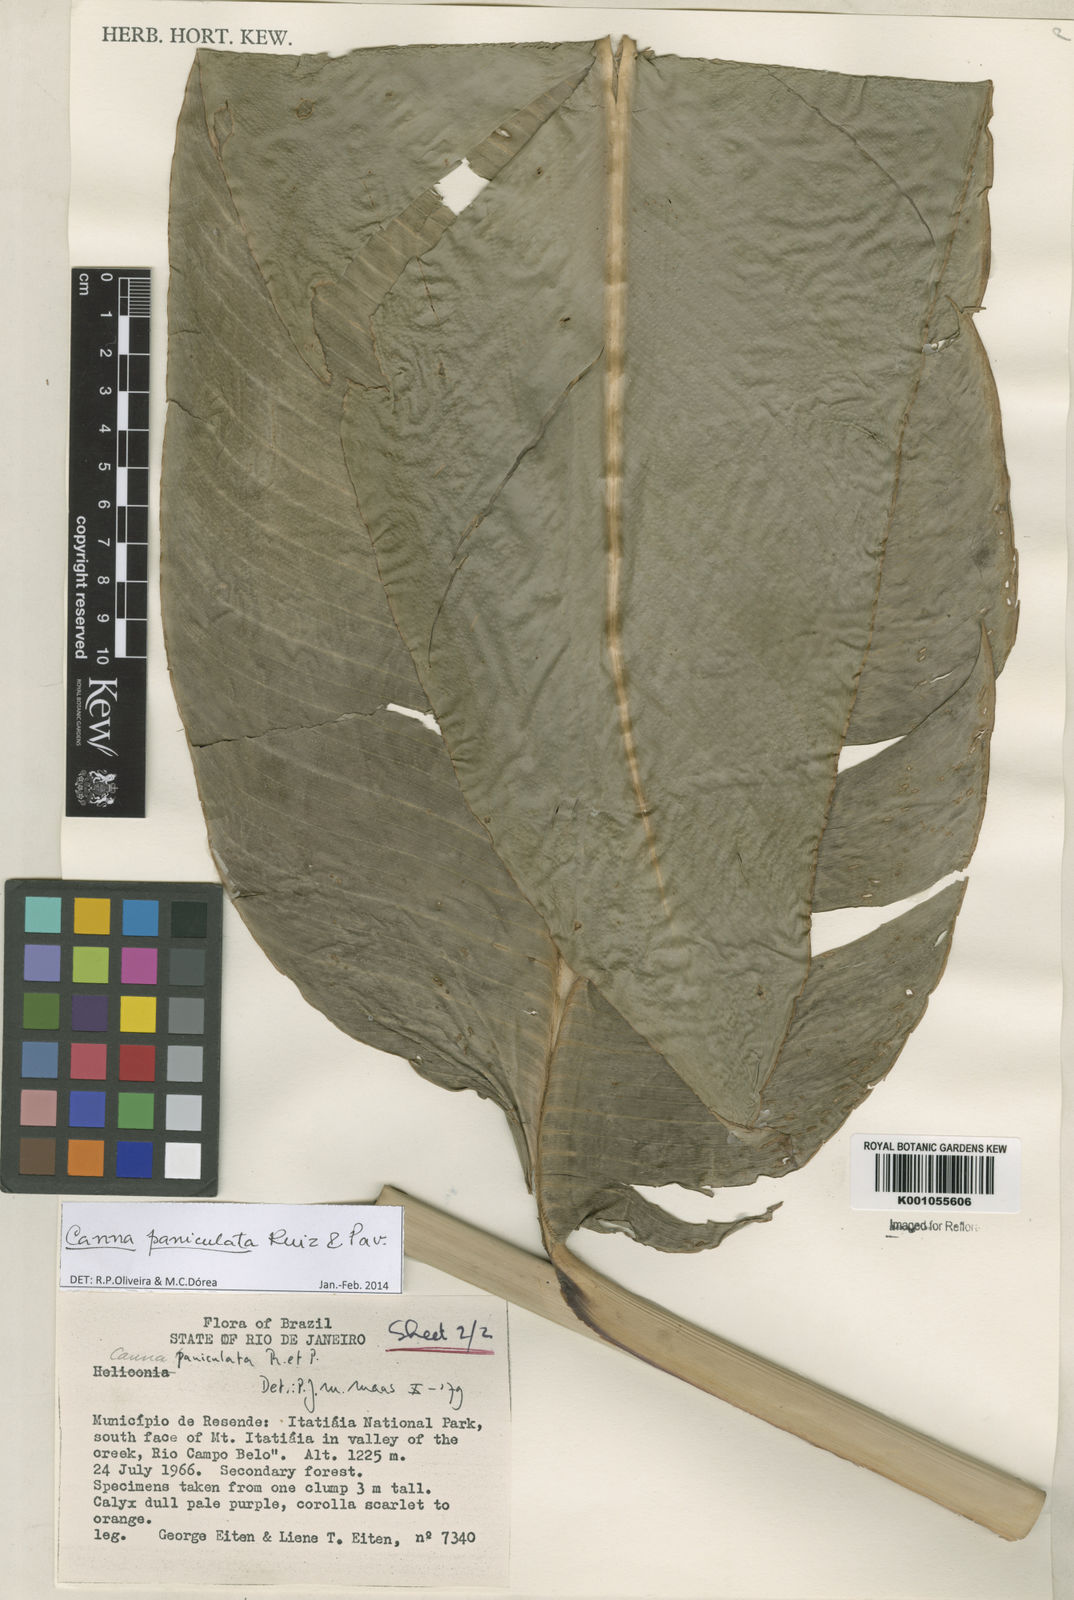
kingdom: Plantae
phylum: Tracheophyta
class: Liliopsida
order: Zingiberales
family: Cannaceae
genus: Canna
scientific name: Canna paniculata
